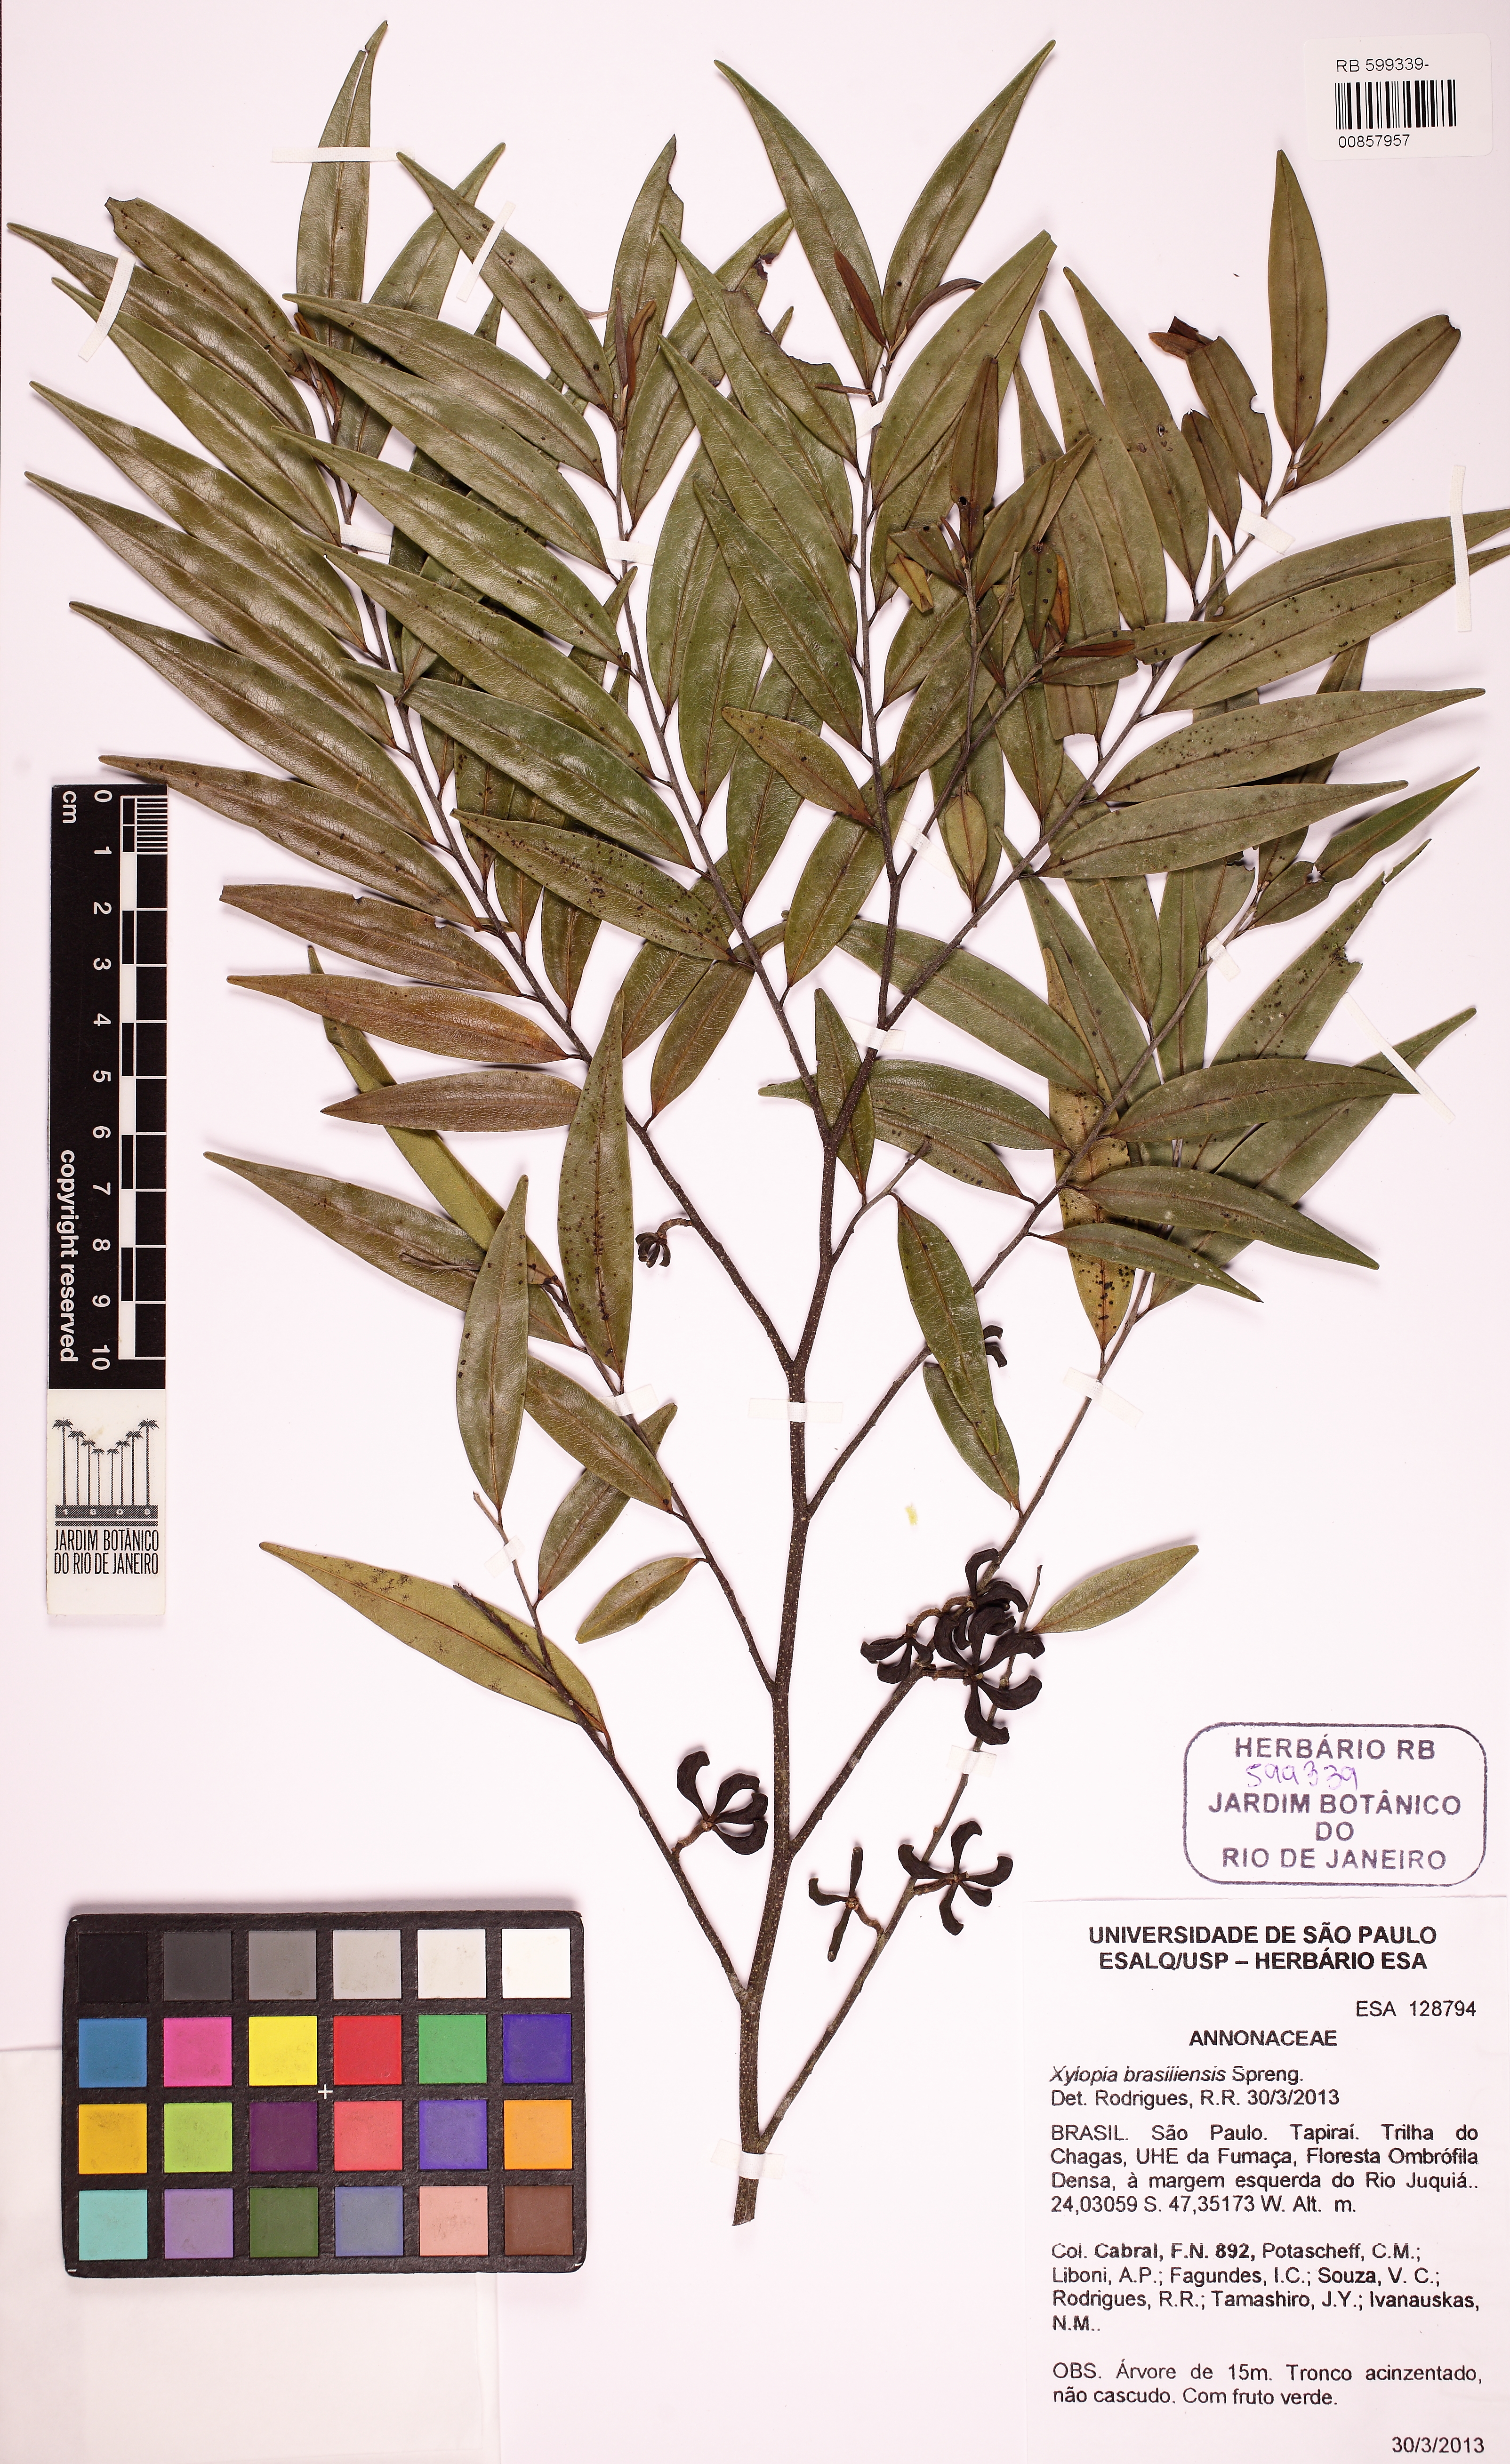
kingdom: Plantae
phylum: Tracheophyta
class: Magnoliopsida
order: Magnoliales
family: Annonaceae
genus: Xylopia
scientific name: Xylopia brasiliensis
